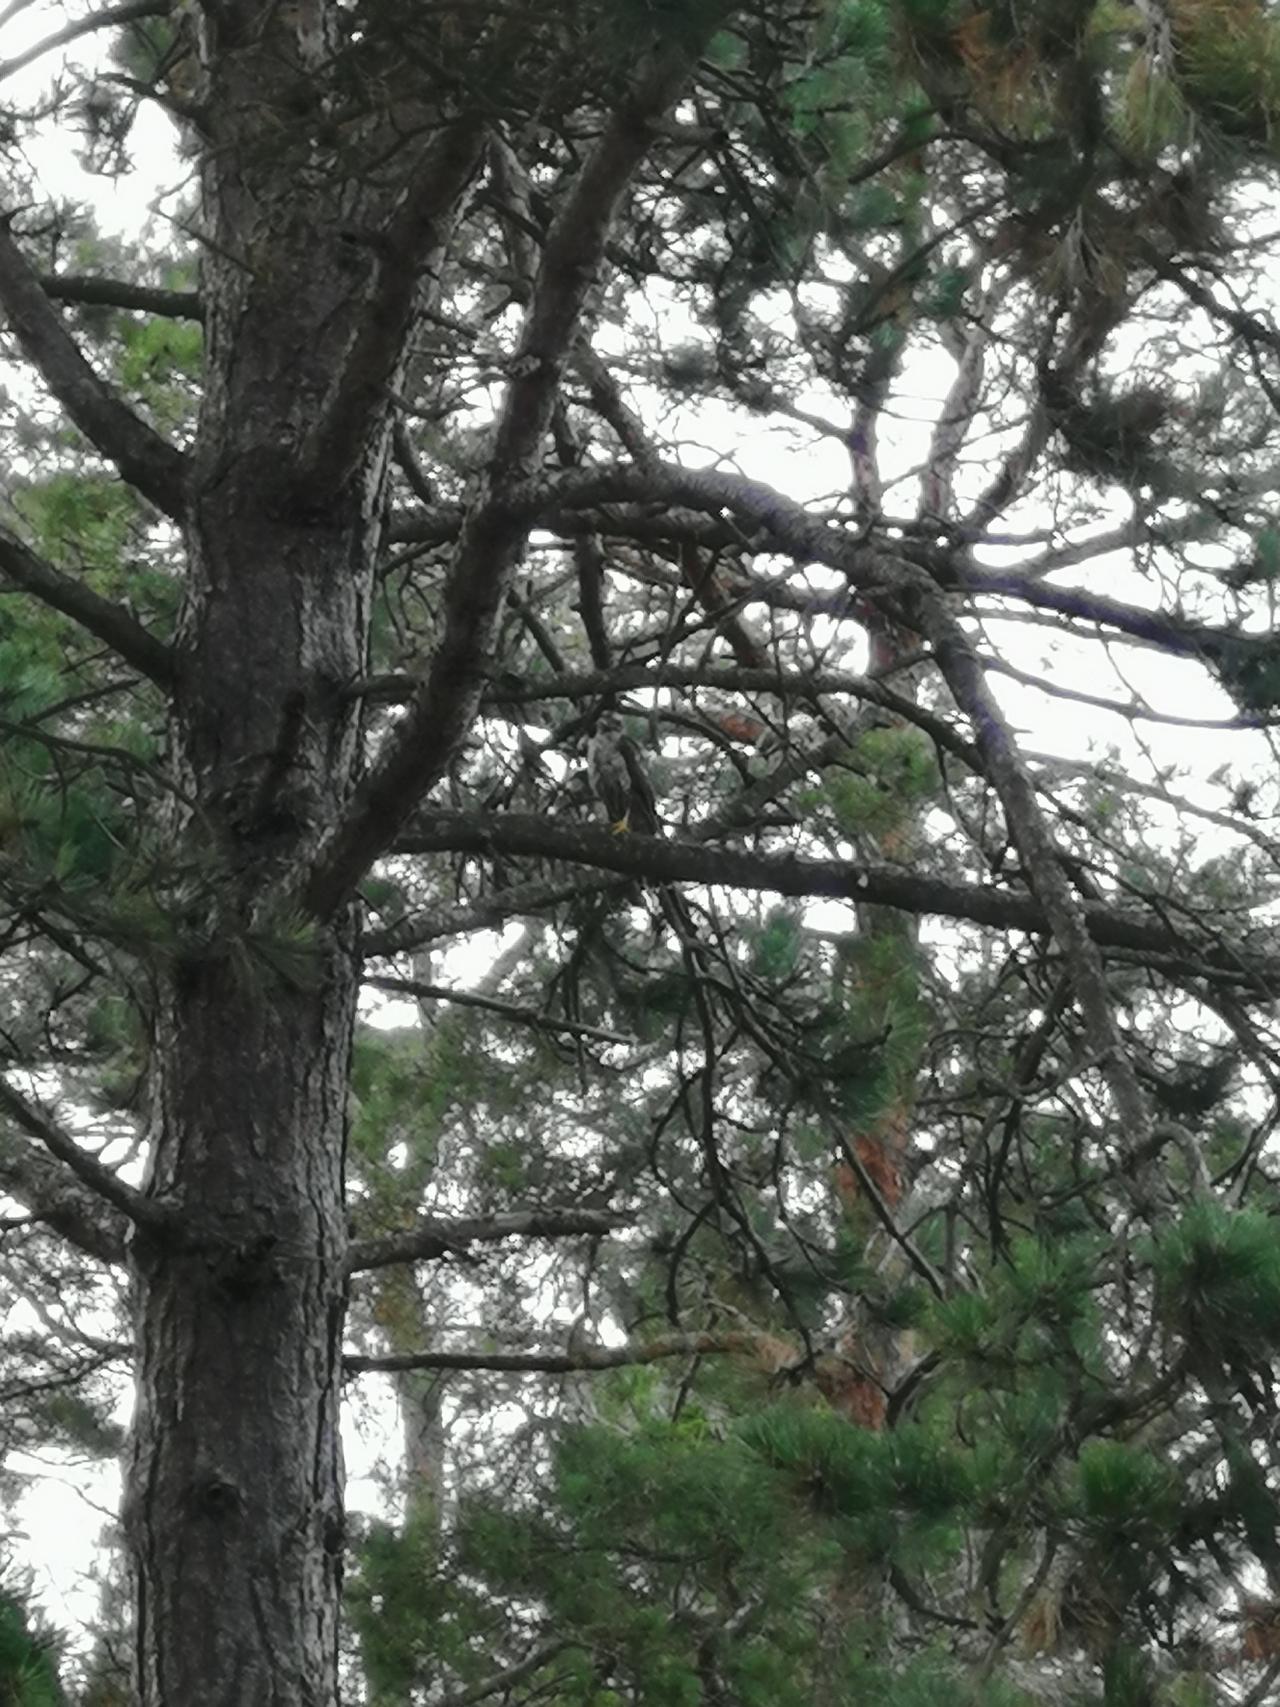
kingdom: Animalia
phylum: Chordata
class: Aves
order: Accipitriformes
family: Accipitridae
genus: Accipiter
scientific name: Accipiter nisus
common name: Spurvehøg
